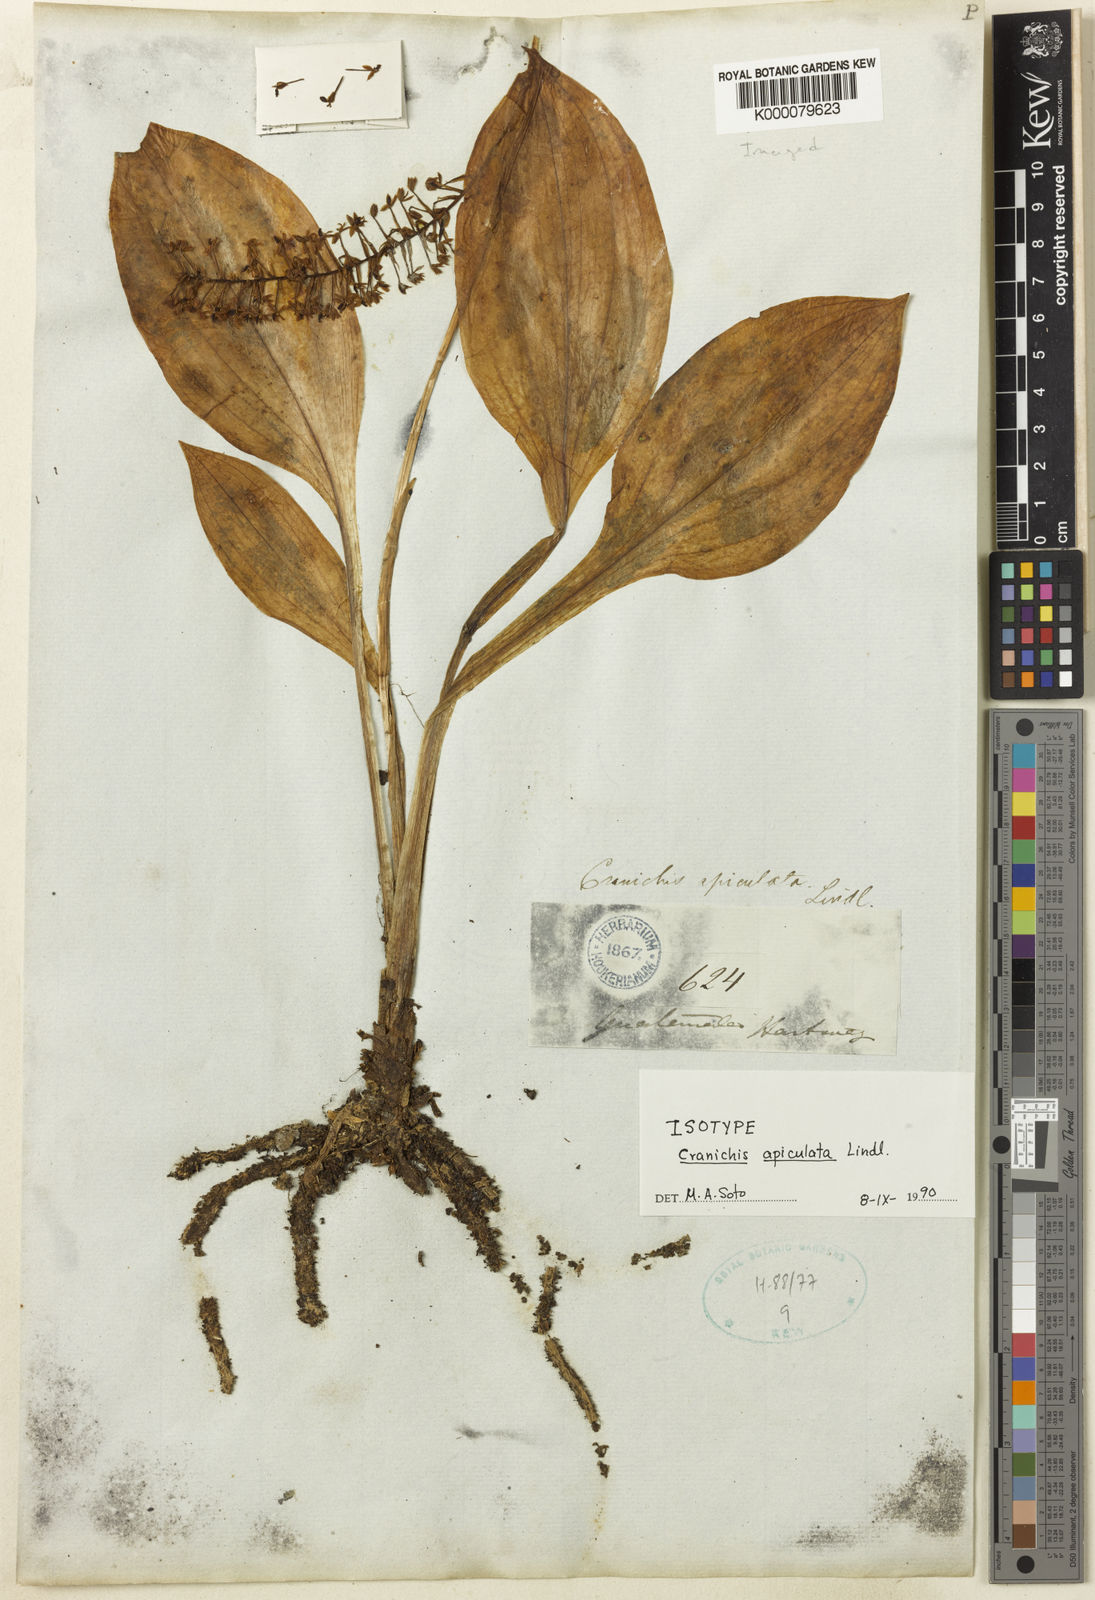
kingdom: Plantae
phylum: Tracheophyta
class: Liliopsida
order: Asparagales
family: Orchidaceae
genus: Cranichis
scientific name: Cranichis apiculata
